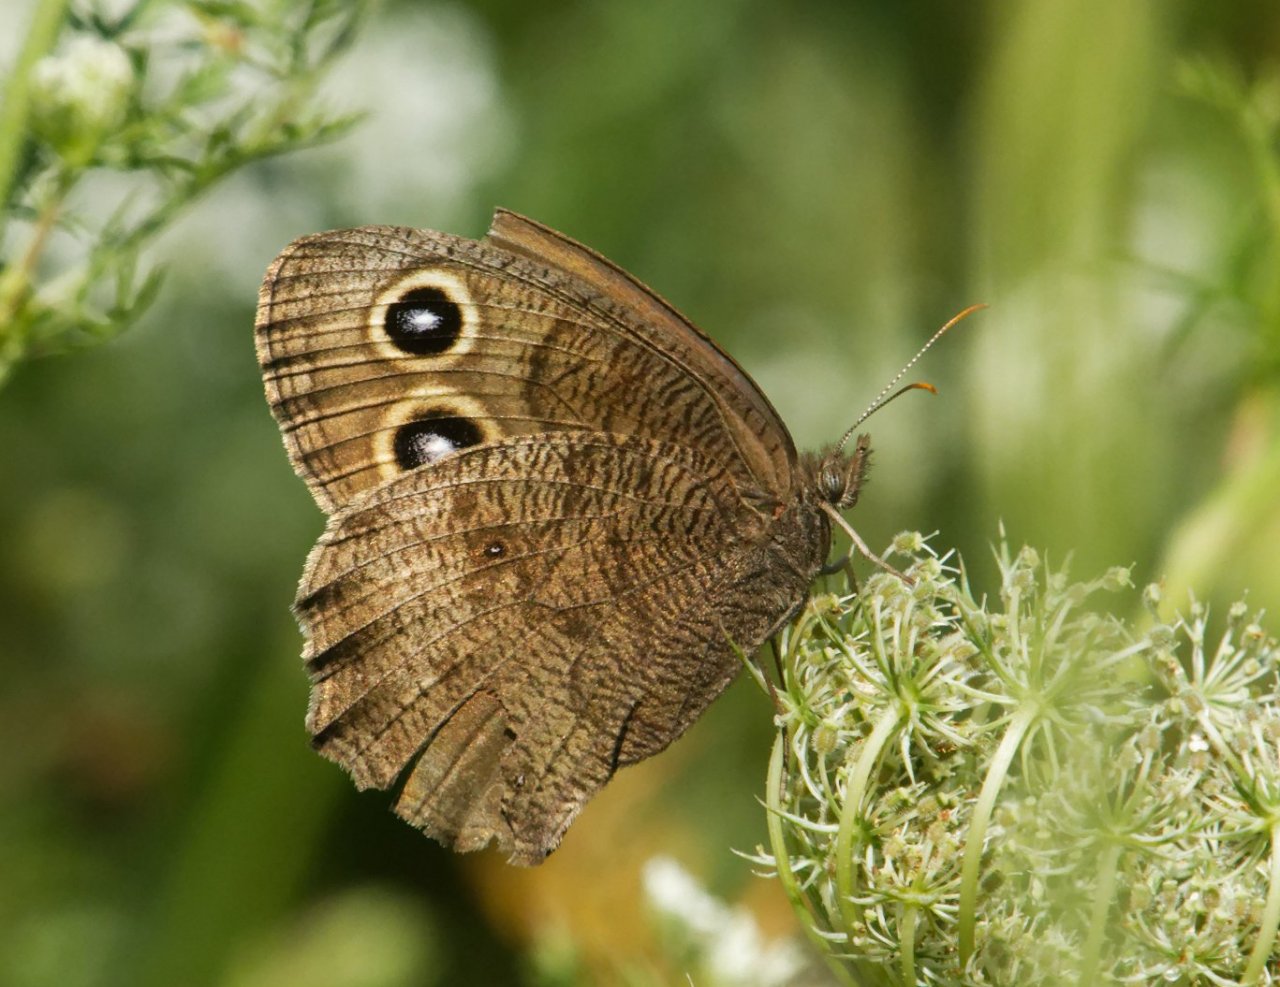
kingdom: Animalia
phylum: Arthropoda
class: Insecta
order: Lepidoptera
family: Nymphalidae
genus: Cercyonis
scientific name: Cercyonis pegala
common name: Common Wood-Nymph
